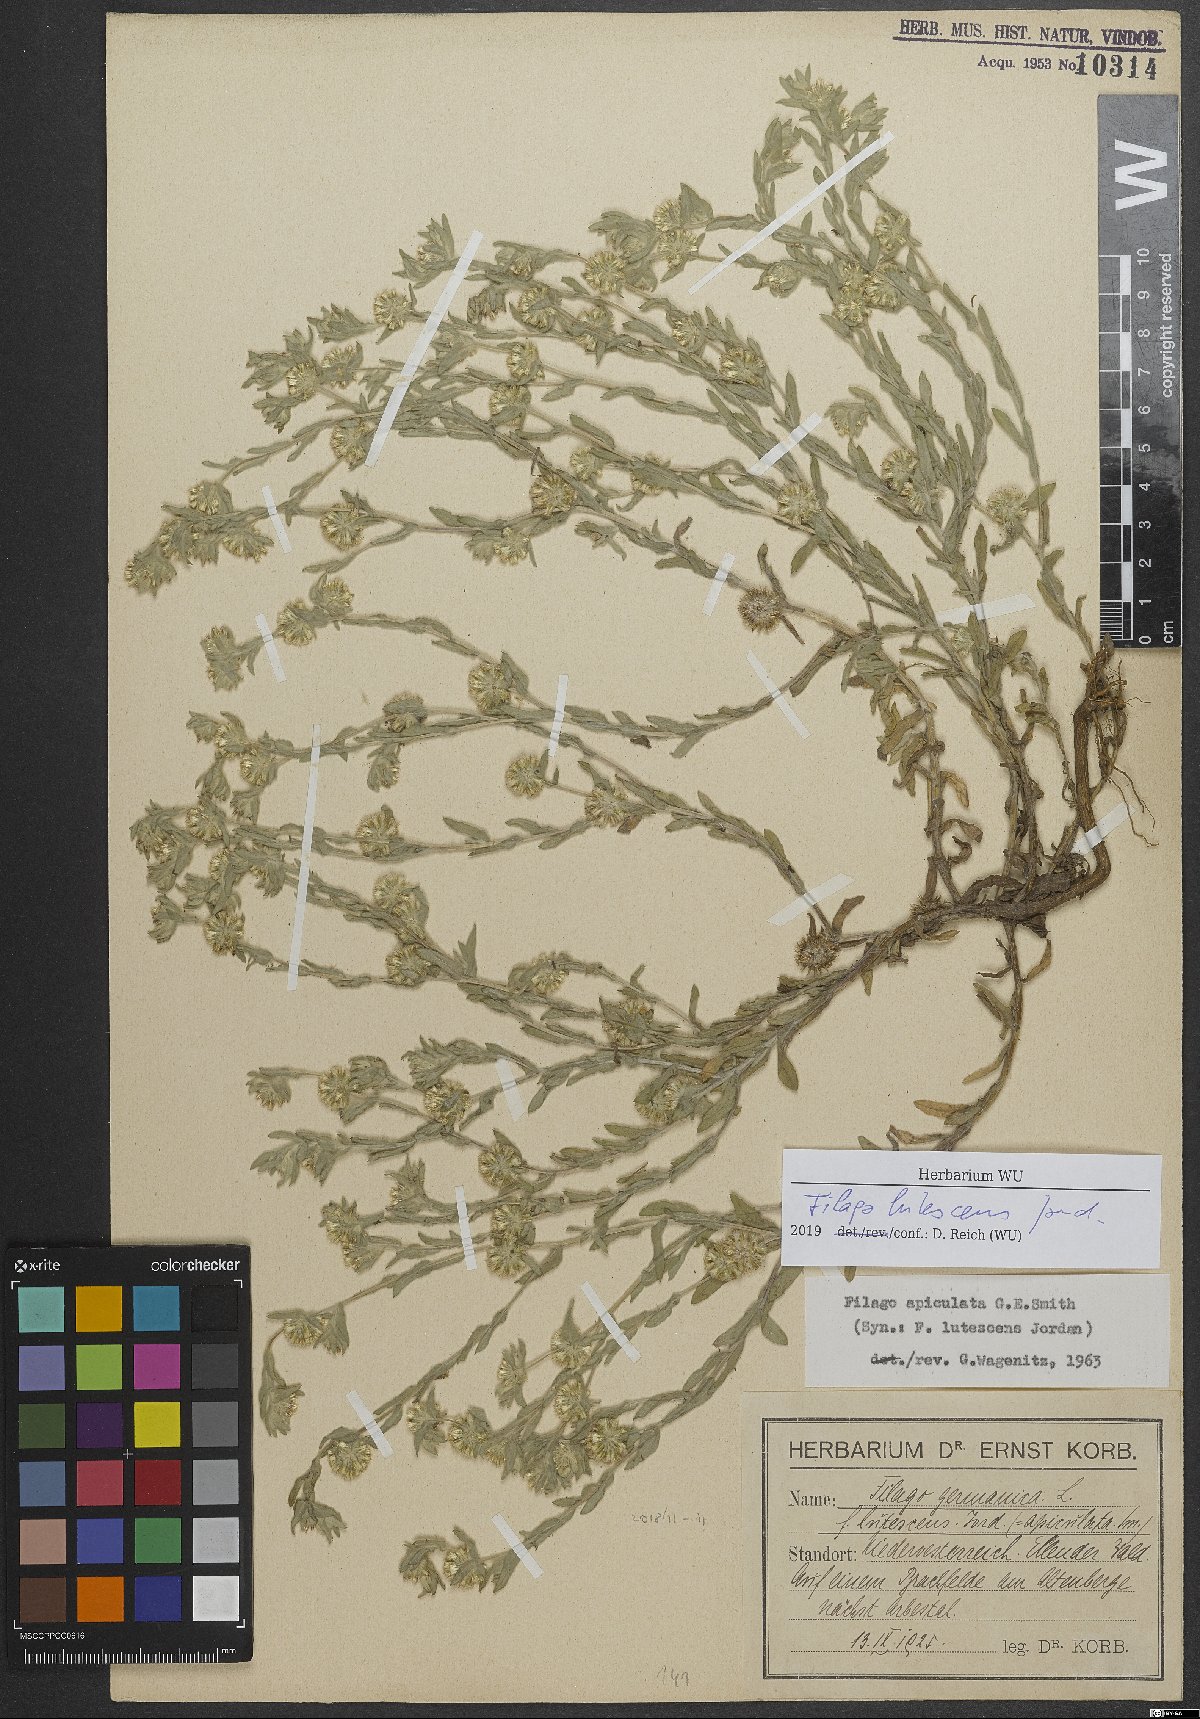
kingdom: Plantae
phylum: Tracheophyta
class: Magnoliopsida
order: Asterales
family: Asteraceae
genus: Filago
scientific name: Filago lutescens
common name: Red-tipped cudweed
